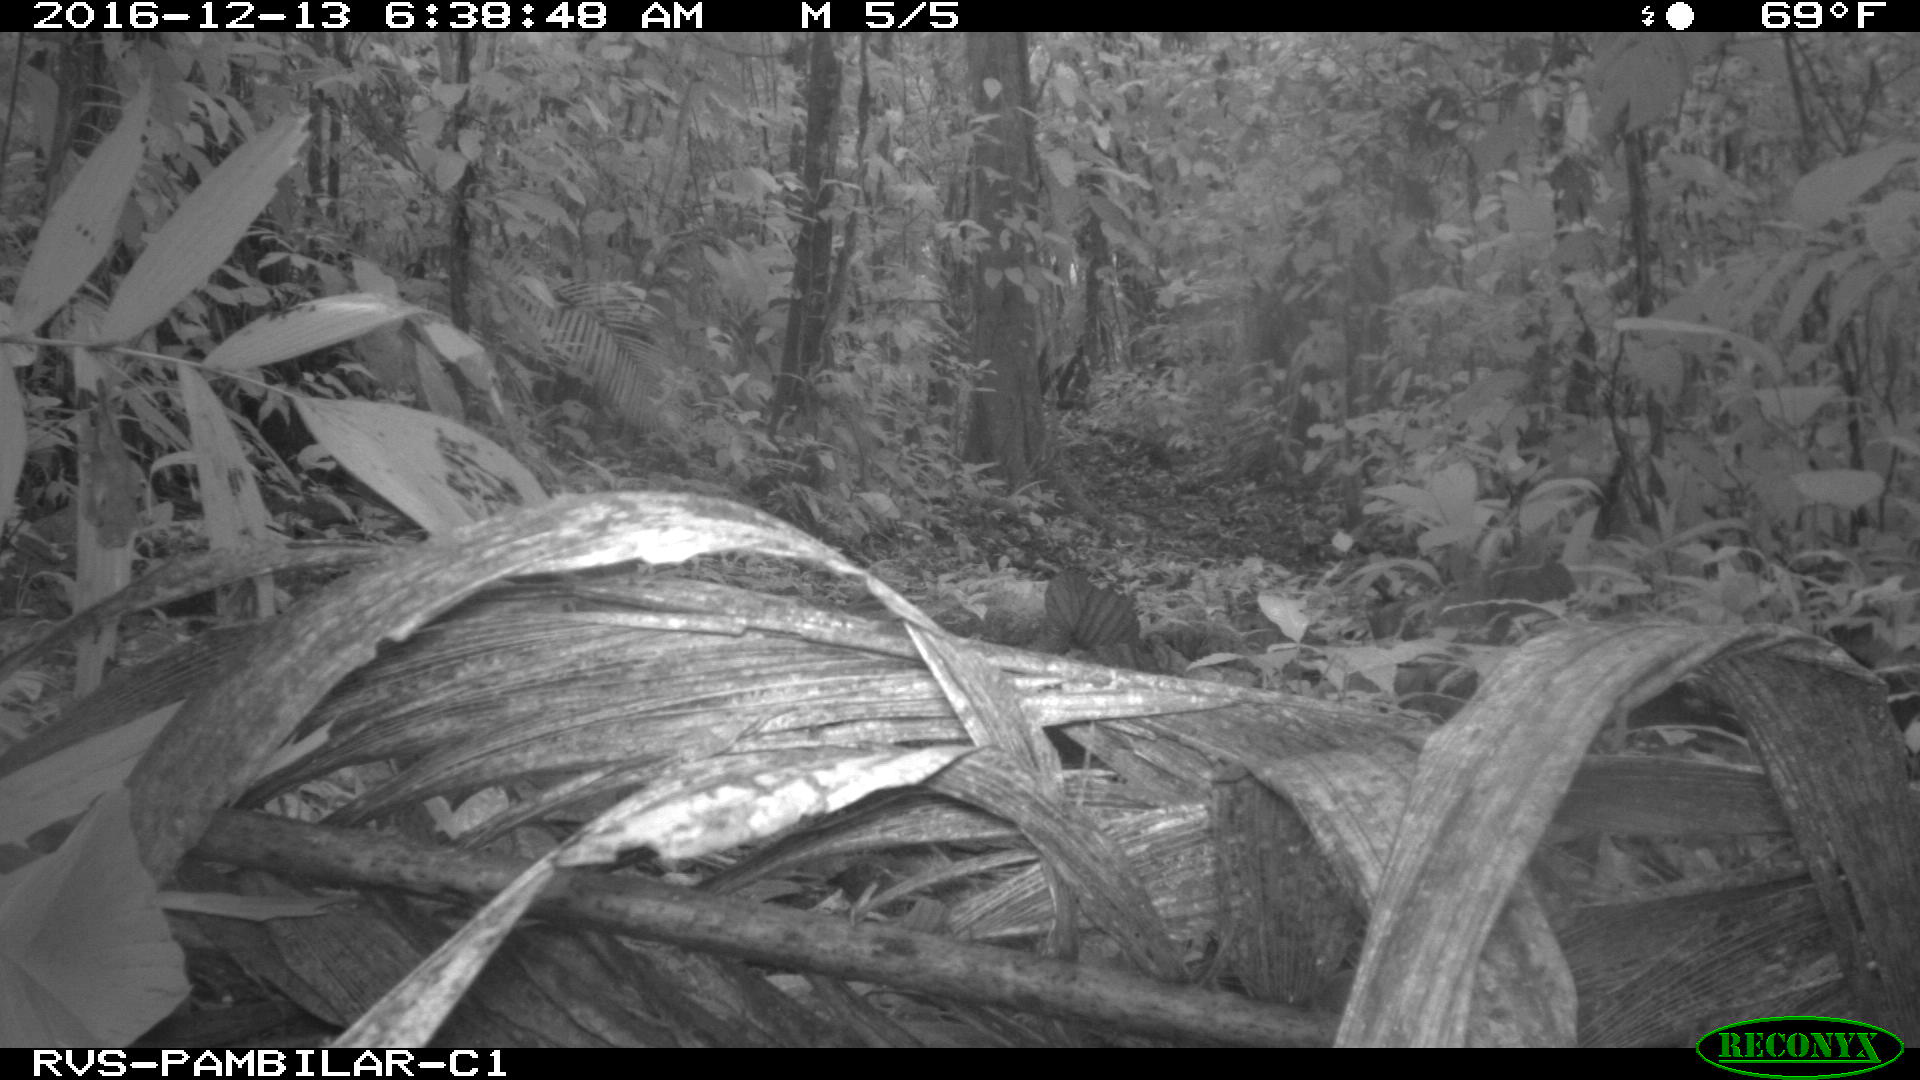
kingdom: Animalia
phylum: Chordata
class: Mammalia
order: Rodentia
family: Dasyproctidae
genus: Dasyprocta
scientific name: Dasyprocta punctata
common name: Central american agouti
